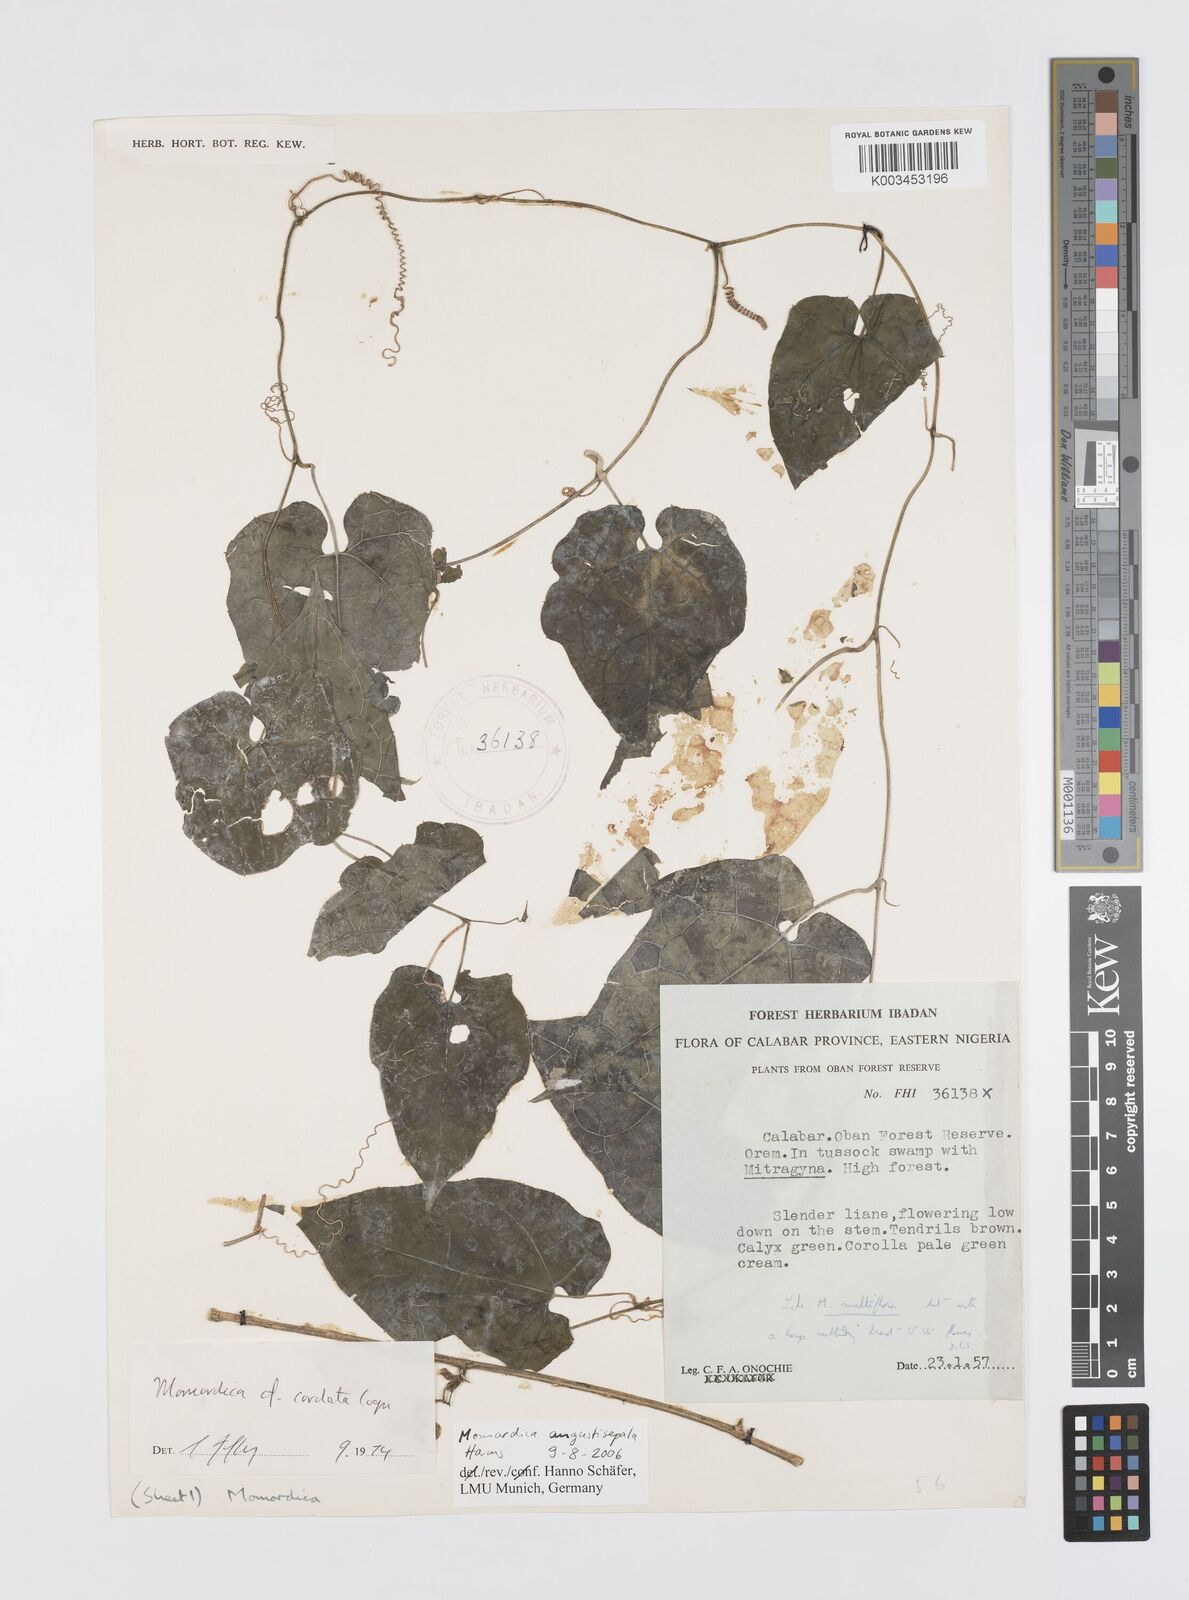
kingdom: Plantae
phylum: Tracheophyta
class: Magnoliopsida
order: Cucurbitales
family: Cucurbitaceae
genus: Momordica
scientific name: Momordica angustisepala
